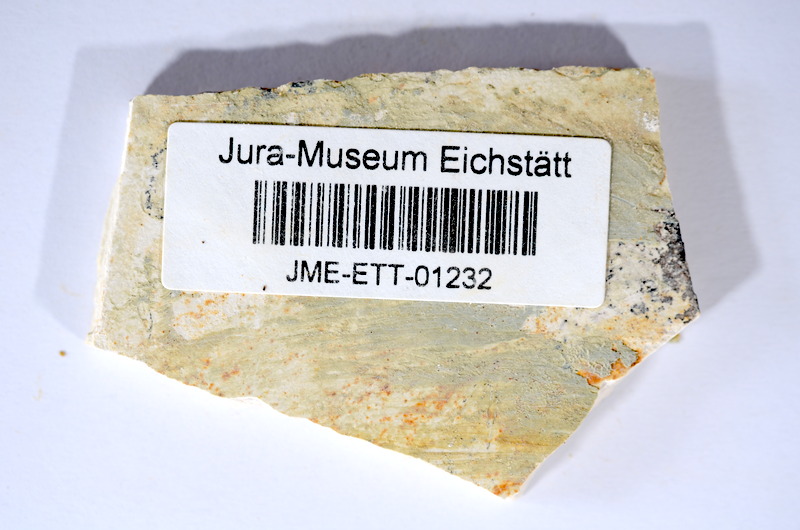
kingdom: Animalia
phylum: Chordata
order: Salmoniformes
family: Orthogonikleithridae
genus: Orthogonikleithrus
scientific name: Orthogonikleithrus hoelli
